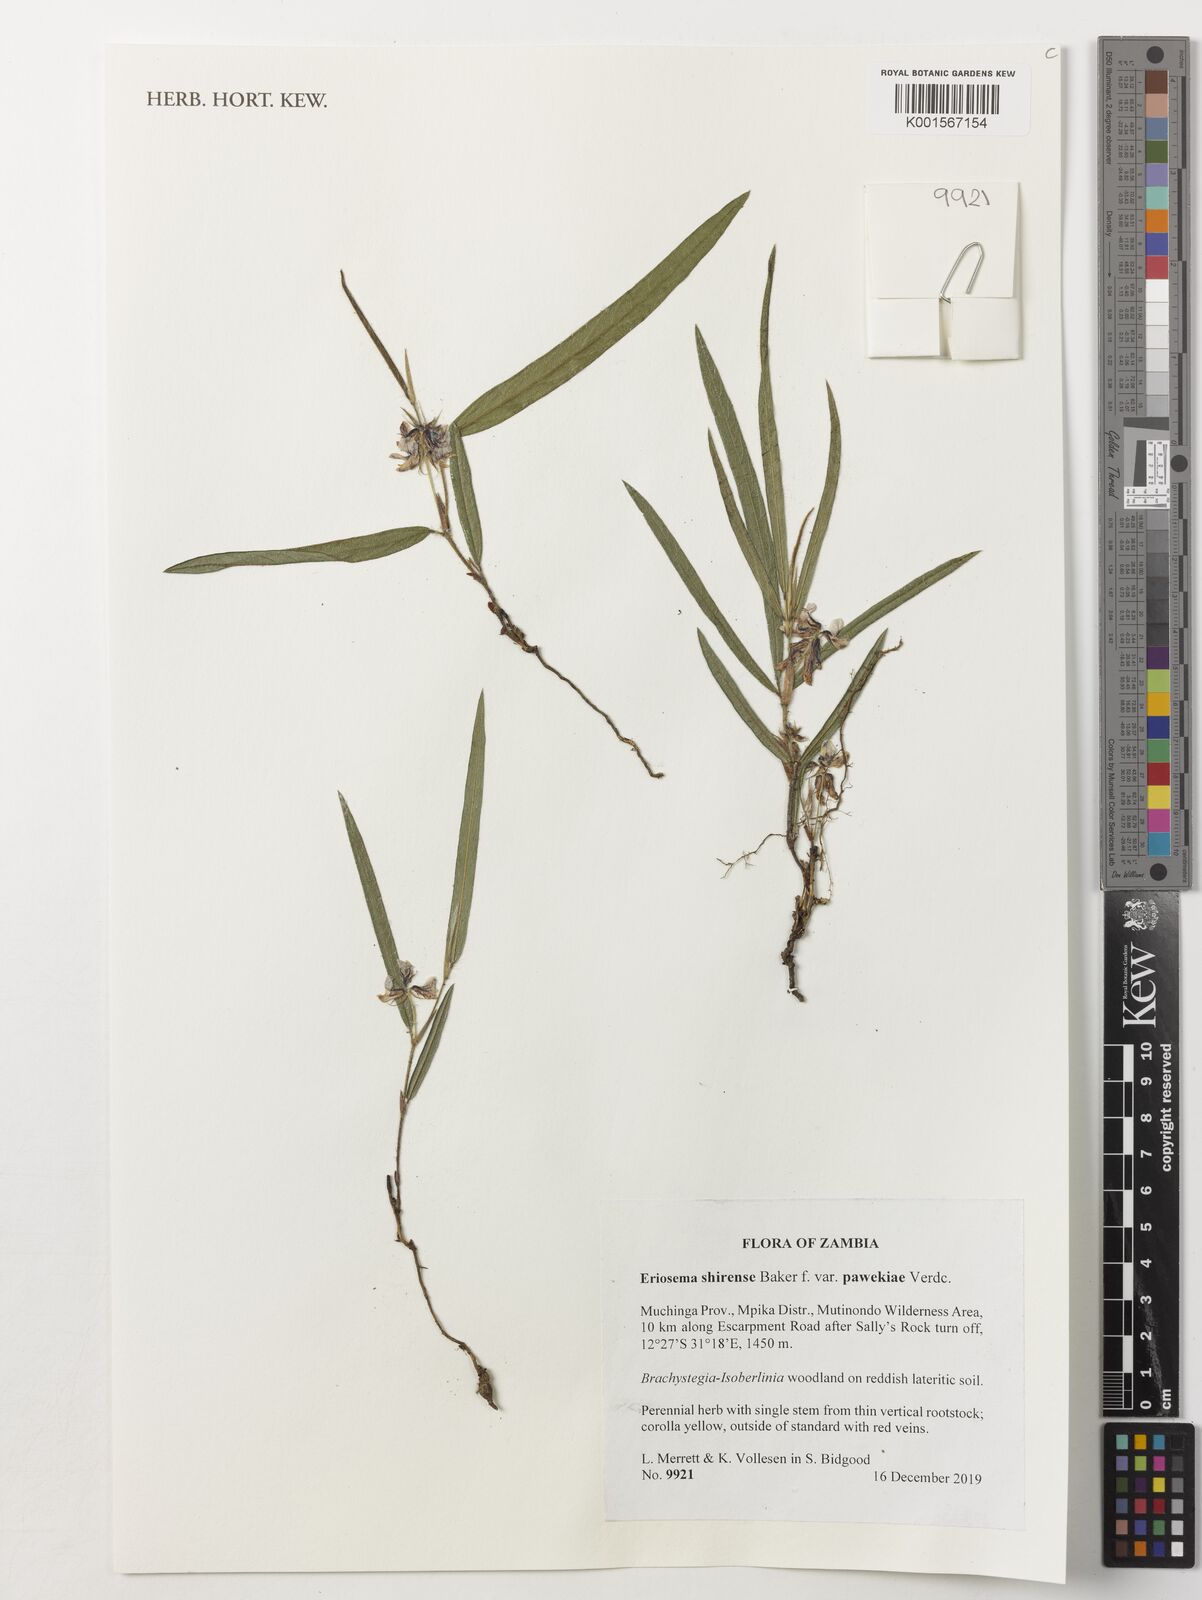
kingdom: Plantae
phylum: Tracheophyta
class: Magnoliopsida
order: Fabales
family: Fabaceae
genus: Eriosema
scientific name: Eriosema shirense
